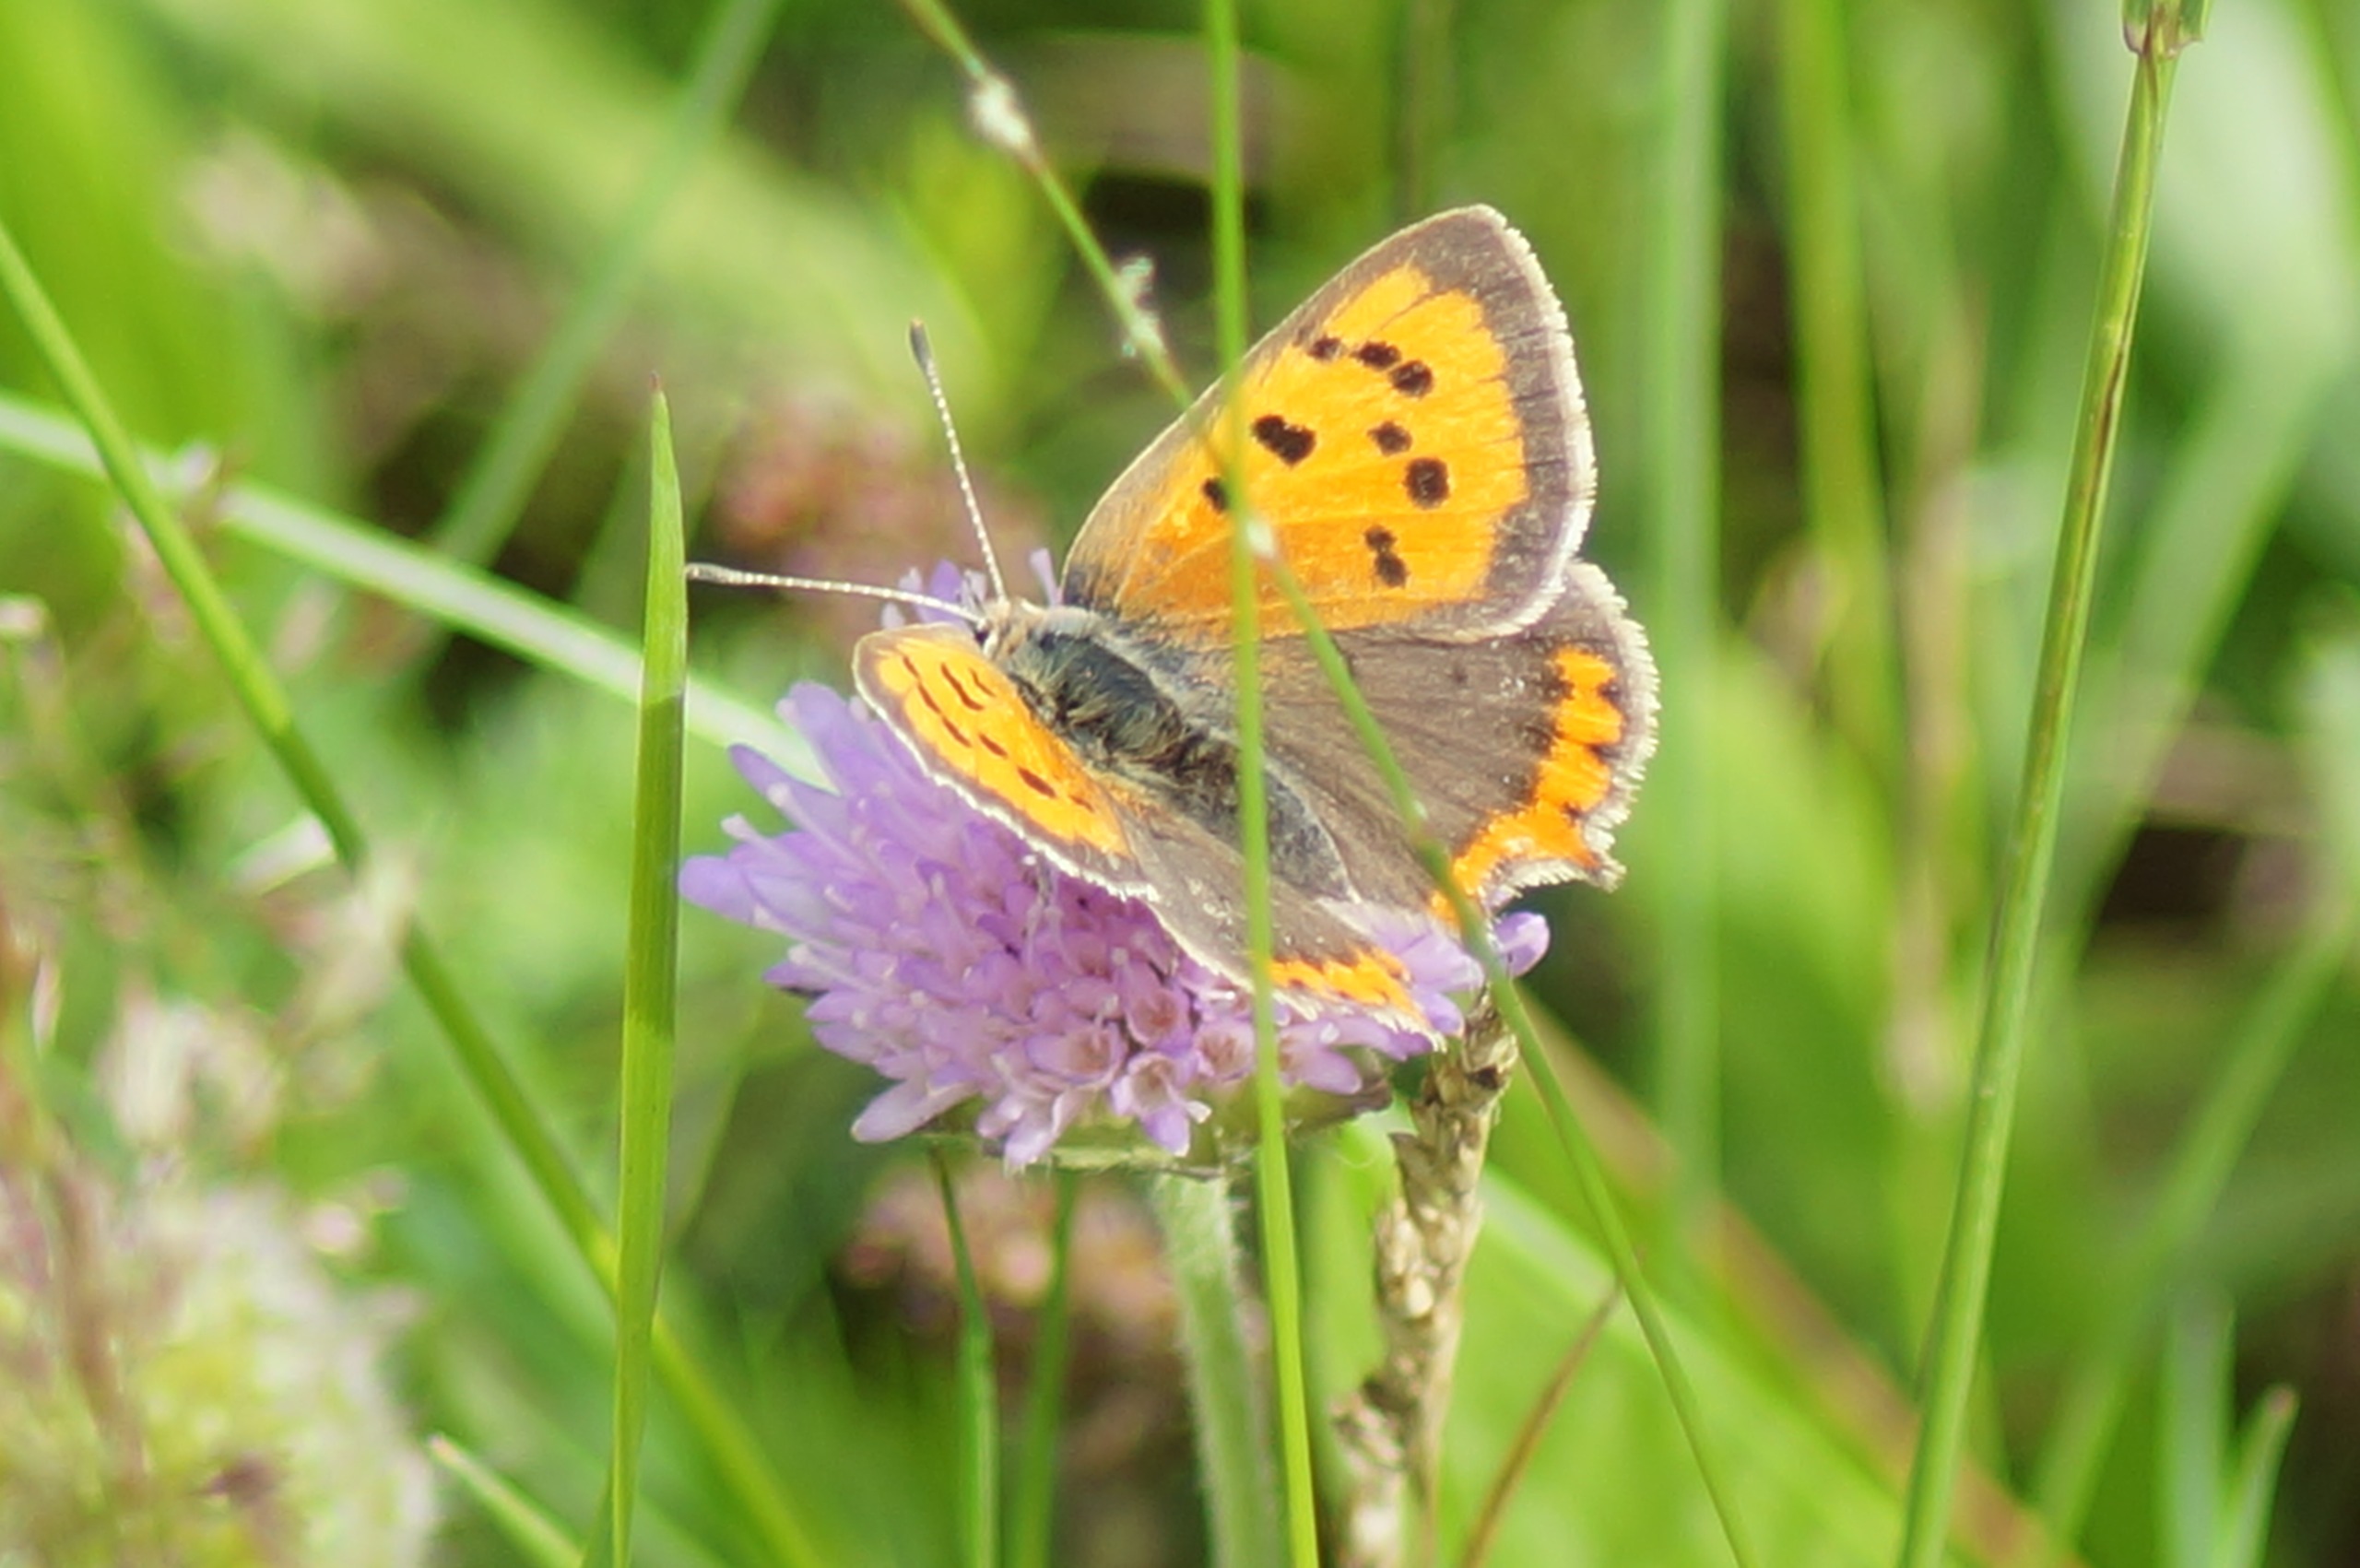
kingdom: Animalia
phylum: Arthropoda
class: Insecta
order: Lepidoptera
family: Lycaenidae
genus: Lycaena
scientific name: Lycaena phlaeas
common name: Lille ildfugl
